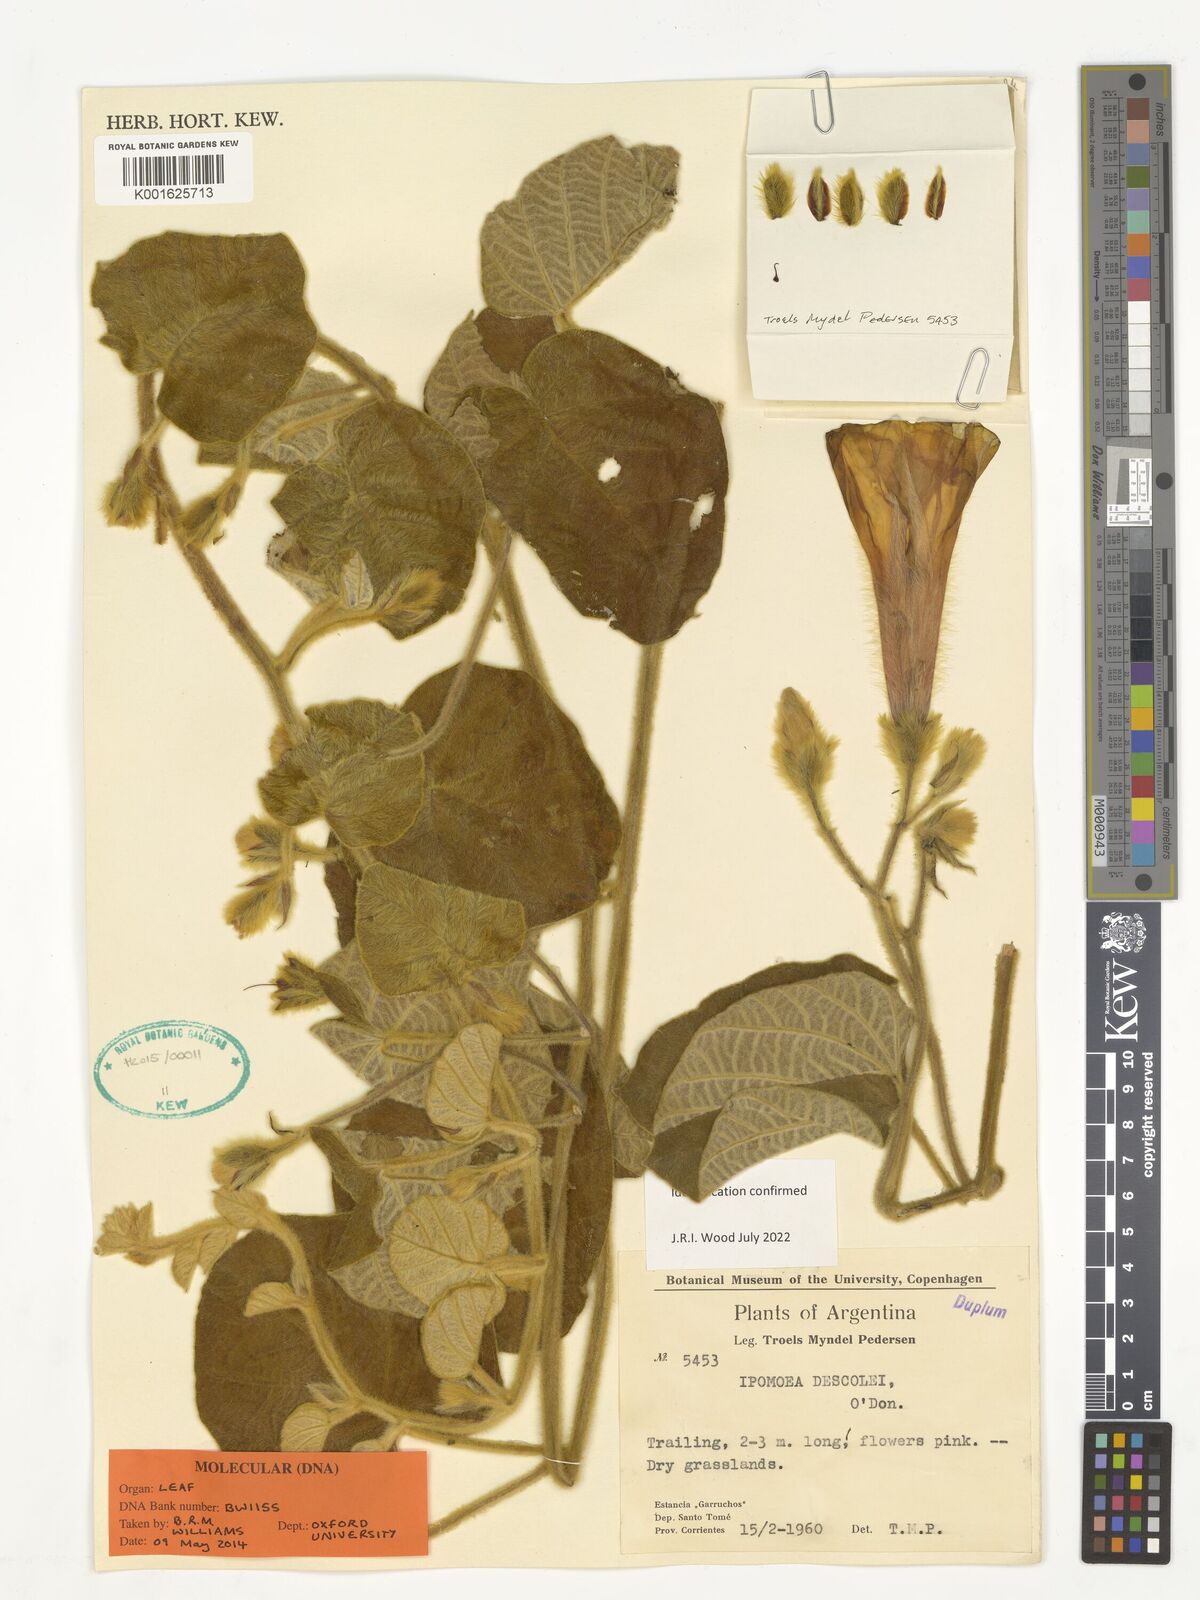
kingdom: Plantae
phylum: Tracheophyta
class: Magnoliopsida
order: Solanales
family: Convolvulaceae
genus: Ipomoea
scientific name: Ipomoea descolei
